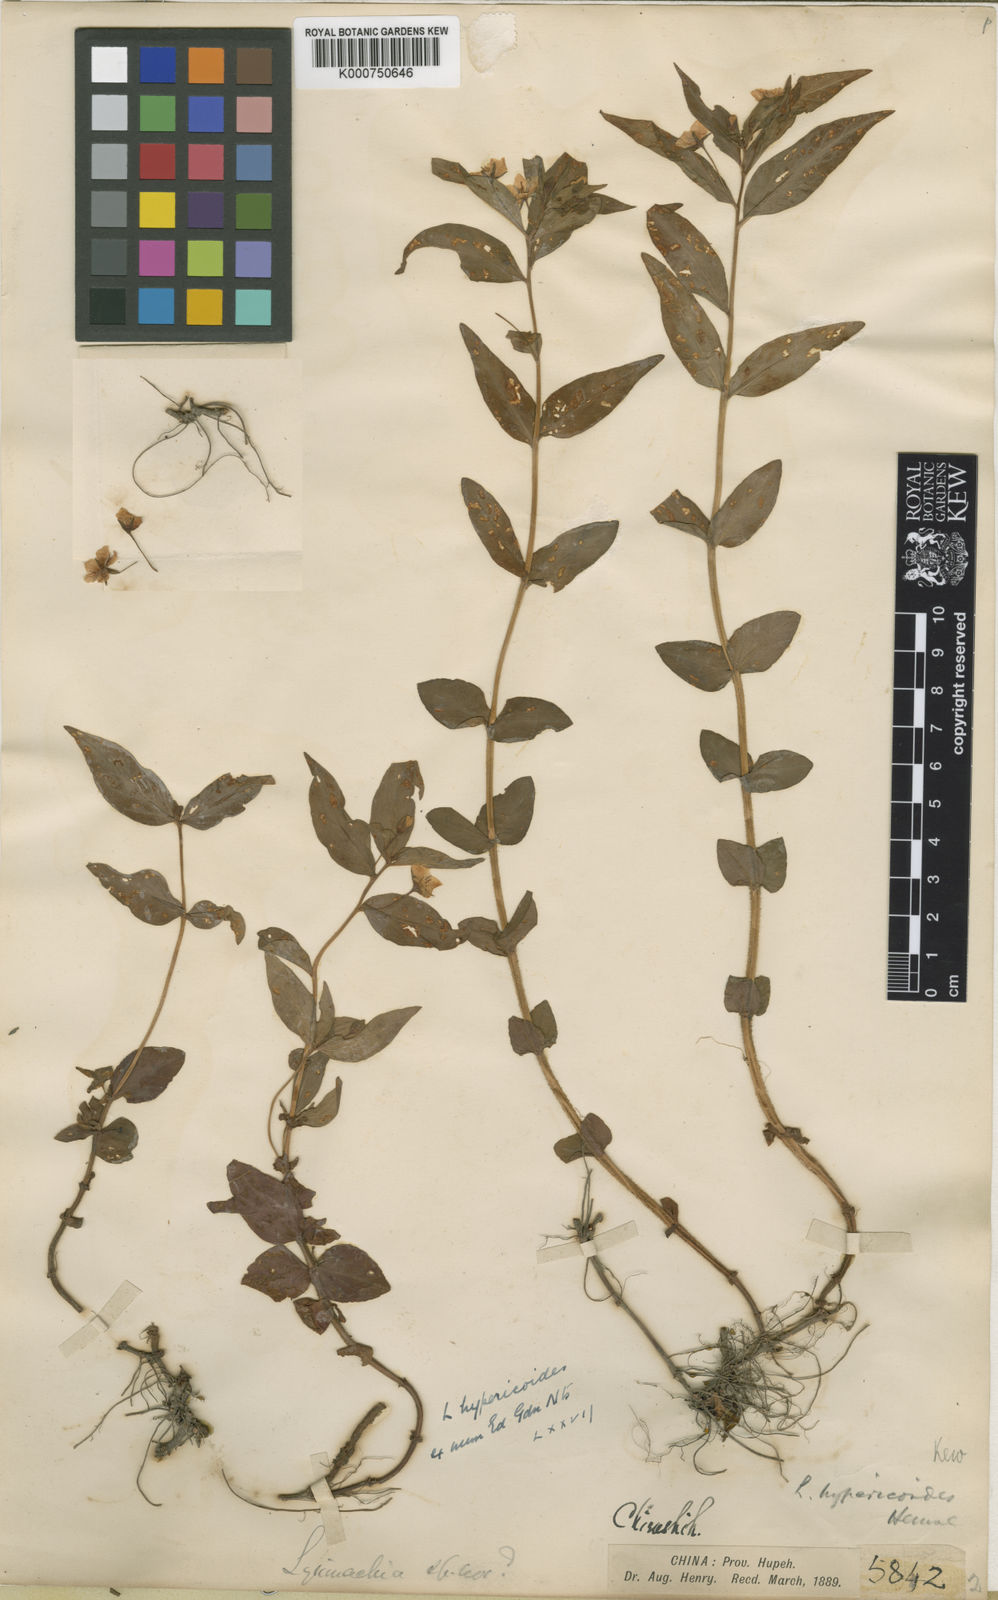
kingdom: Plantae
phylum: Tracheophyta
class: Magnoliopsida
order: Ericales
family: Primulaceae
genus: Lysimachia
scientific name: Lysimachia hypericoides
